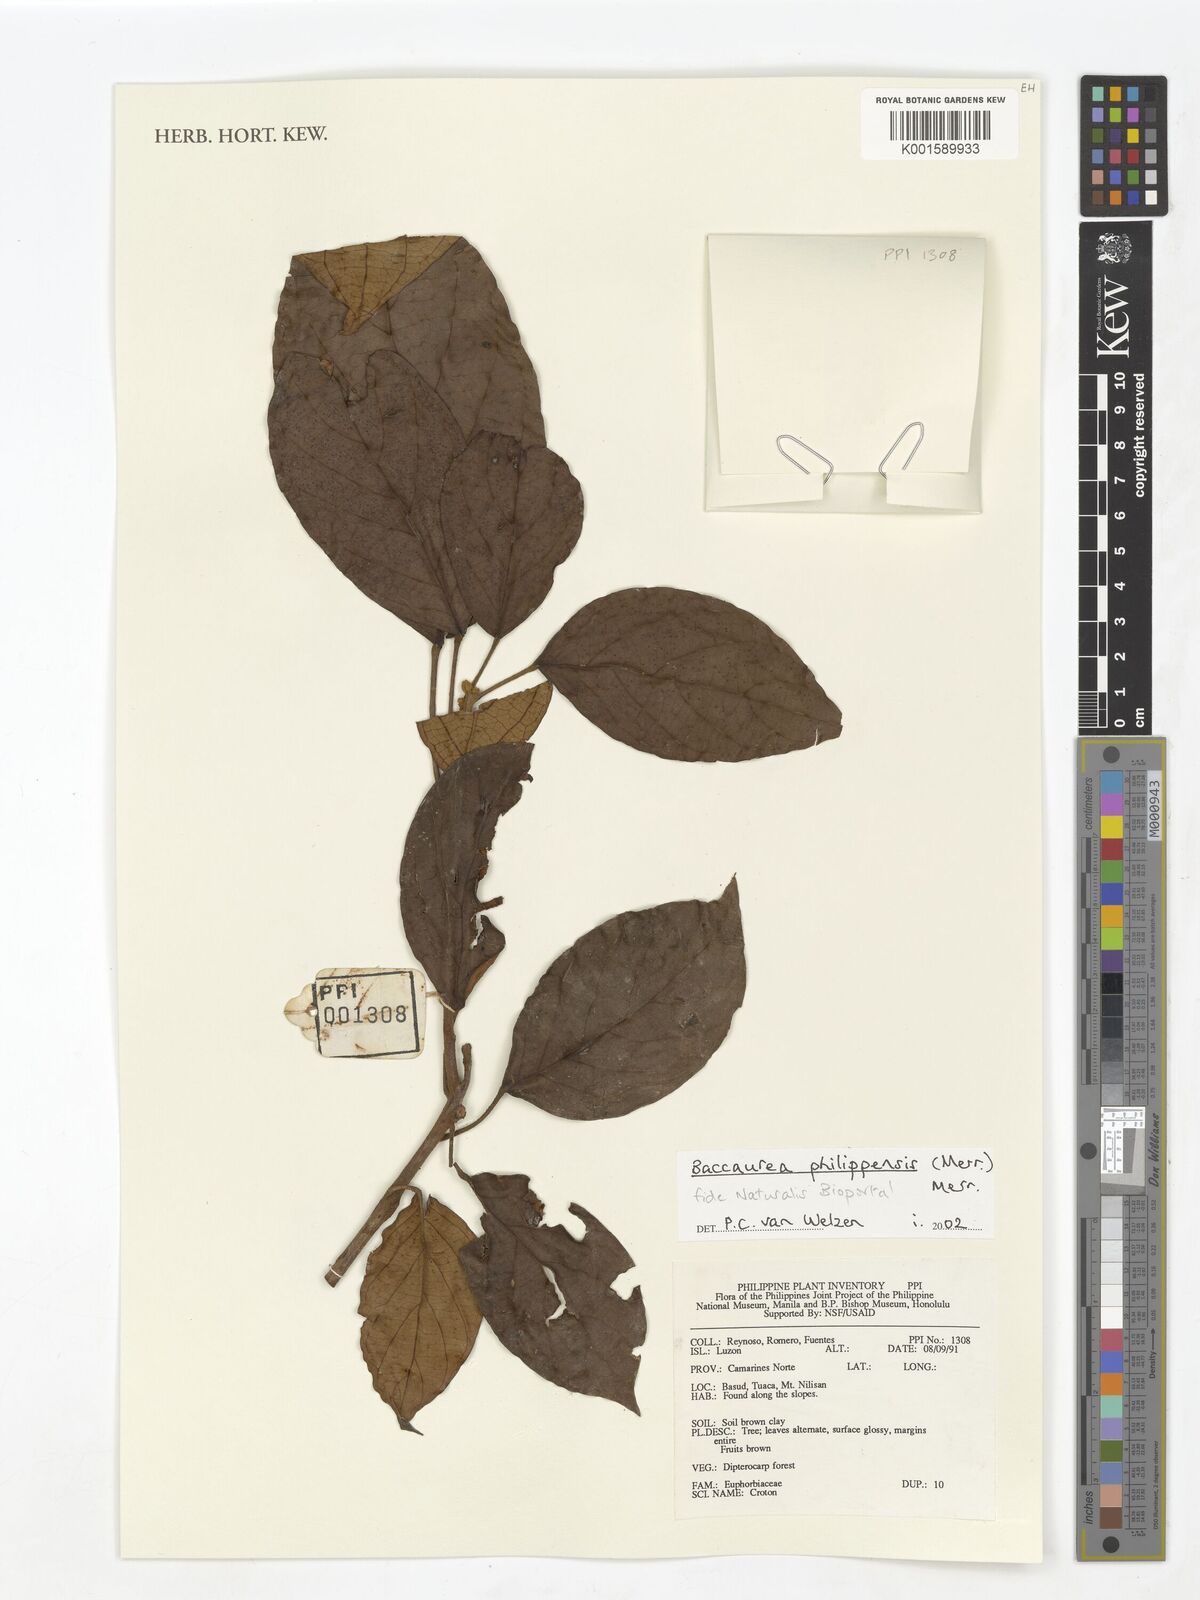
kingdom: Plantae
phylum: Tracheophyta
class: Magnoliopsida
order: Malpighiales
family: Phyllanthaceae
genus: Baccaurea
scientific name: Baccaurea philippinensis
